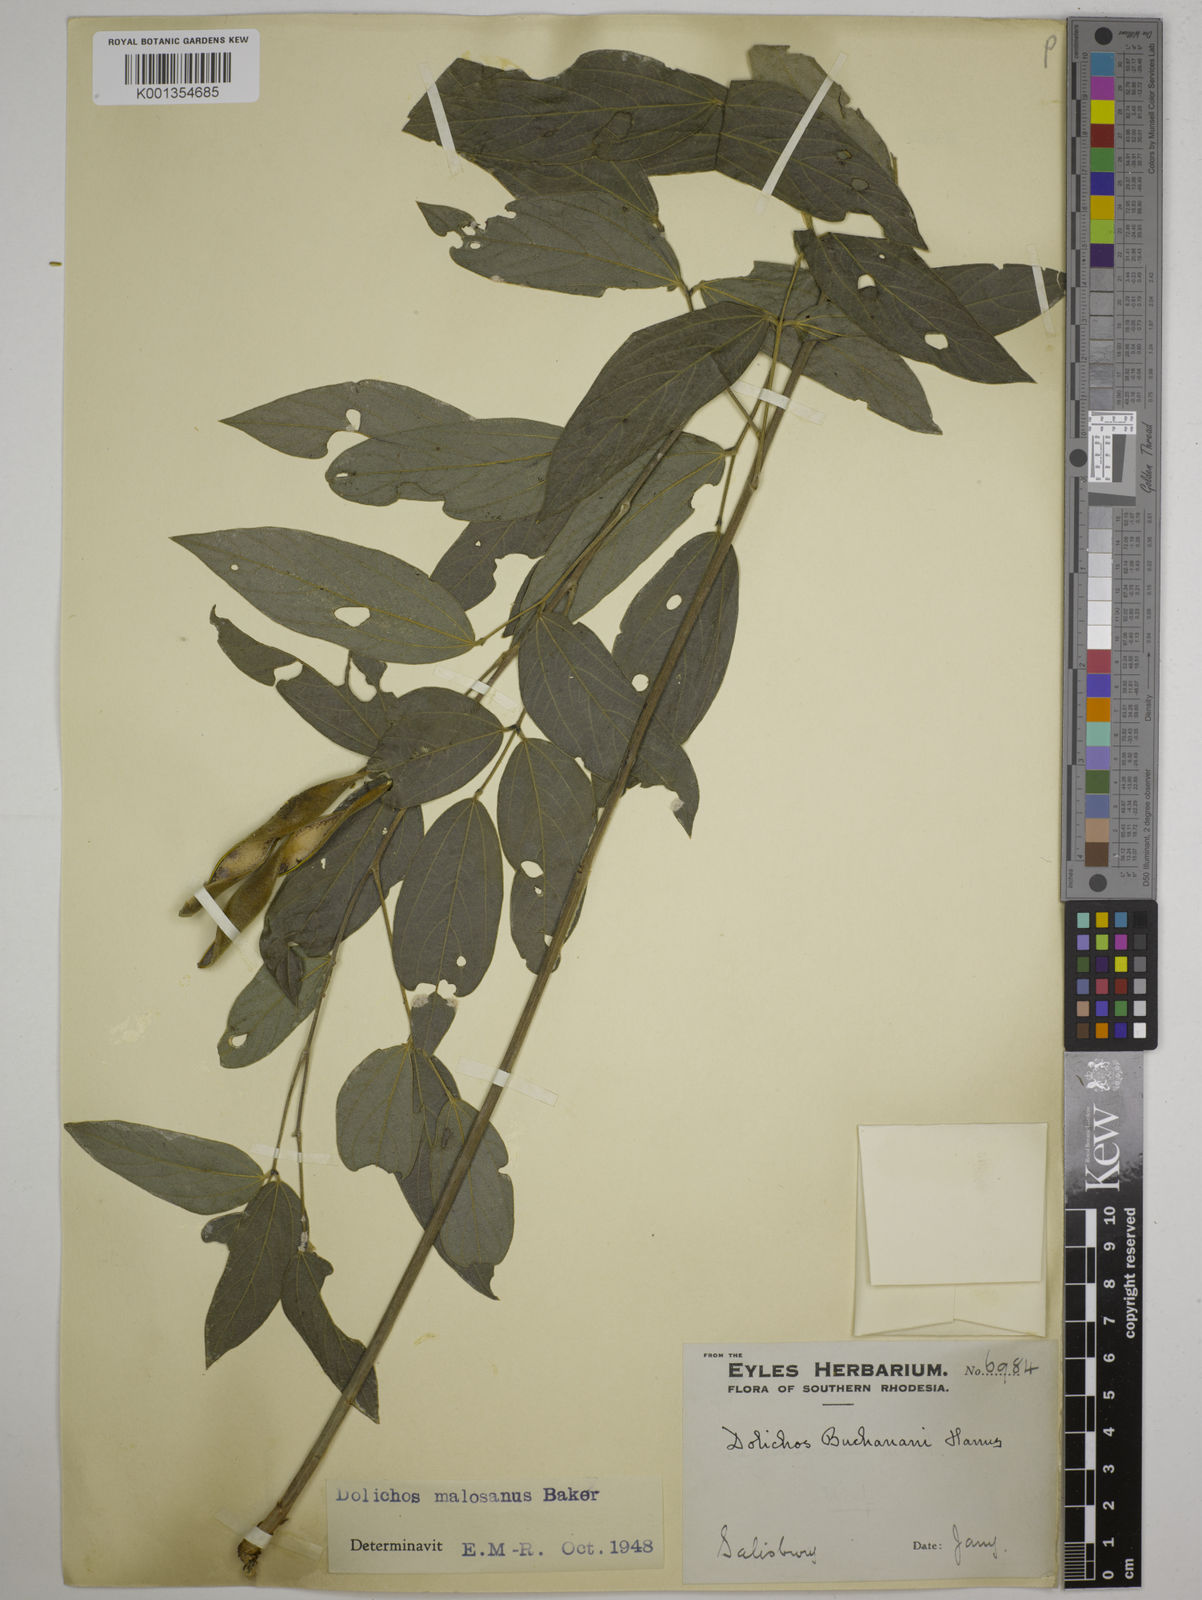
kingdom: Plantae
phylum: Tracheophyta
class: Magnoliopsida
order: Fabales
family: Fabaceae
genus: Dolichos
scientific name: Dolichos kilimandscharicus
